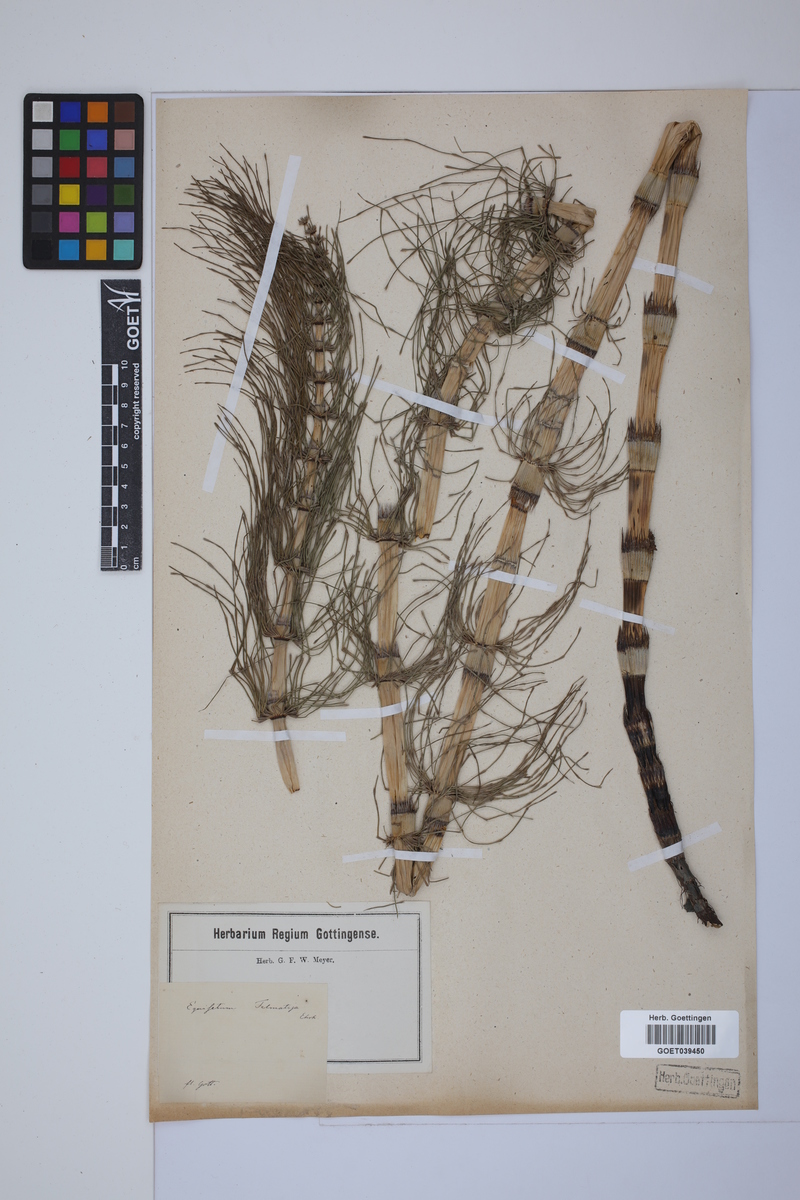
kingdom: Plantae
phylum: Tracheophyta
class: Polypodiopsida
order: Equisetales
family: Equisetaceae
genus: Equisetum
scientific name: Equisetum telmateia
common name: Great horsetail
